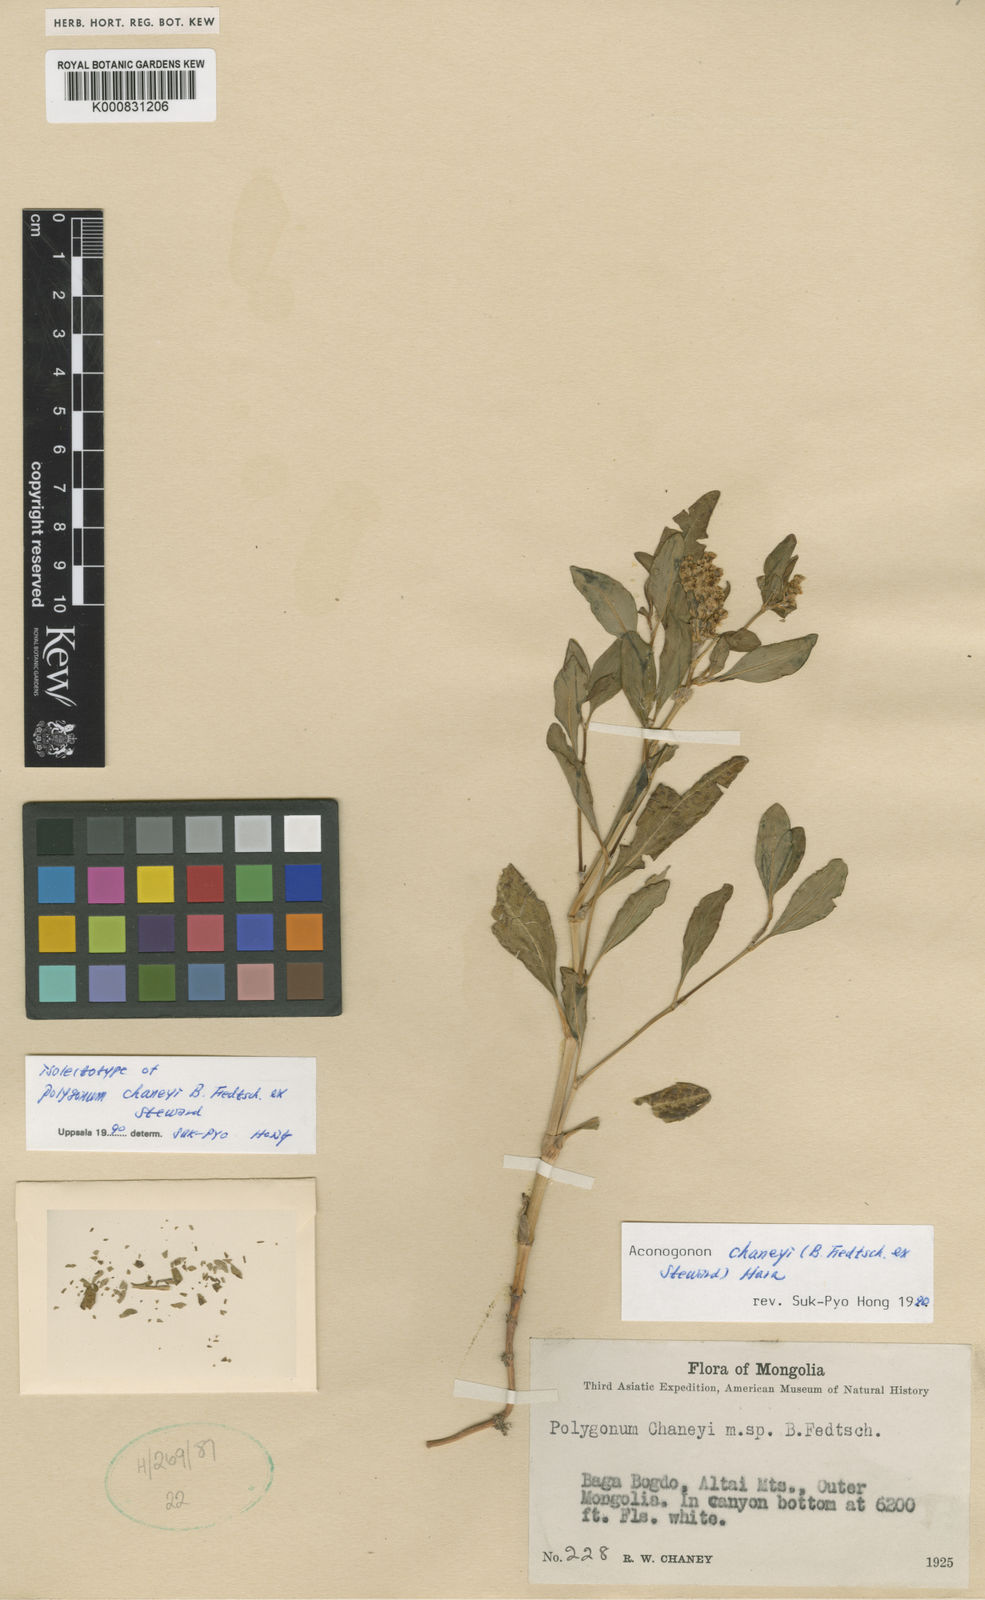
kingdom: Plantae
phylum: Tracheophyta
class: Magnoliopsida
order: Caryophyllales
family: Polygonaceae
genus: Koenigia
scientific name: Koenigia chaneyi
